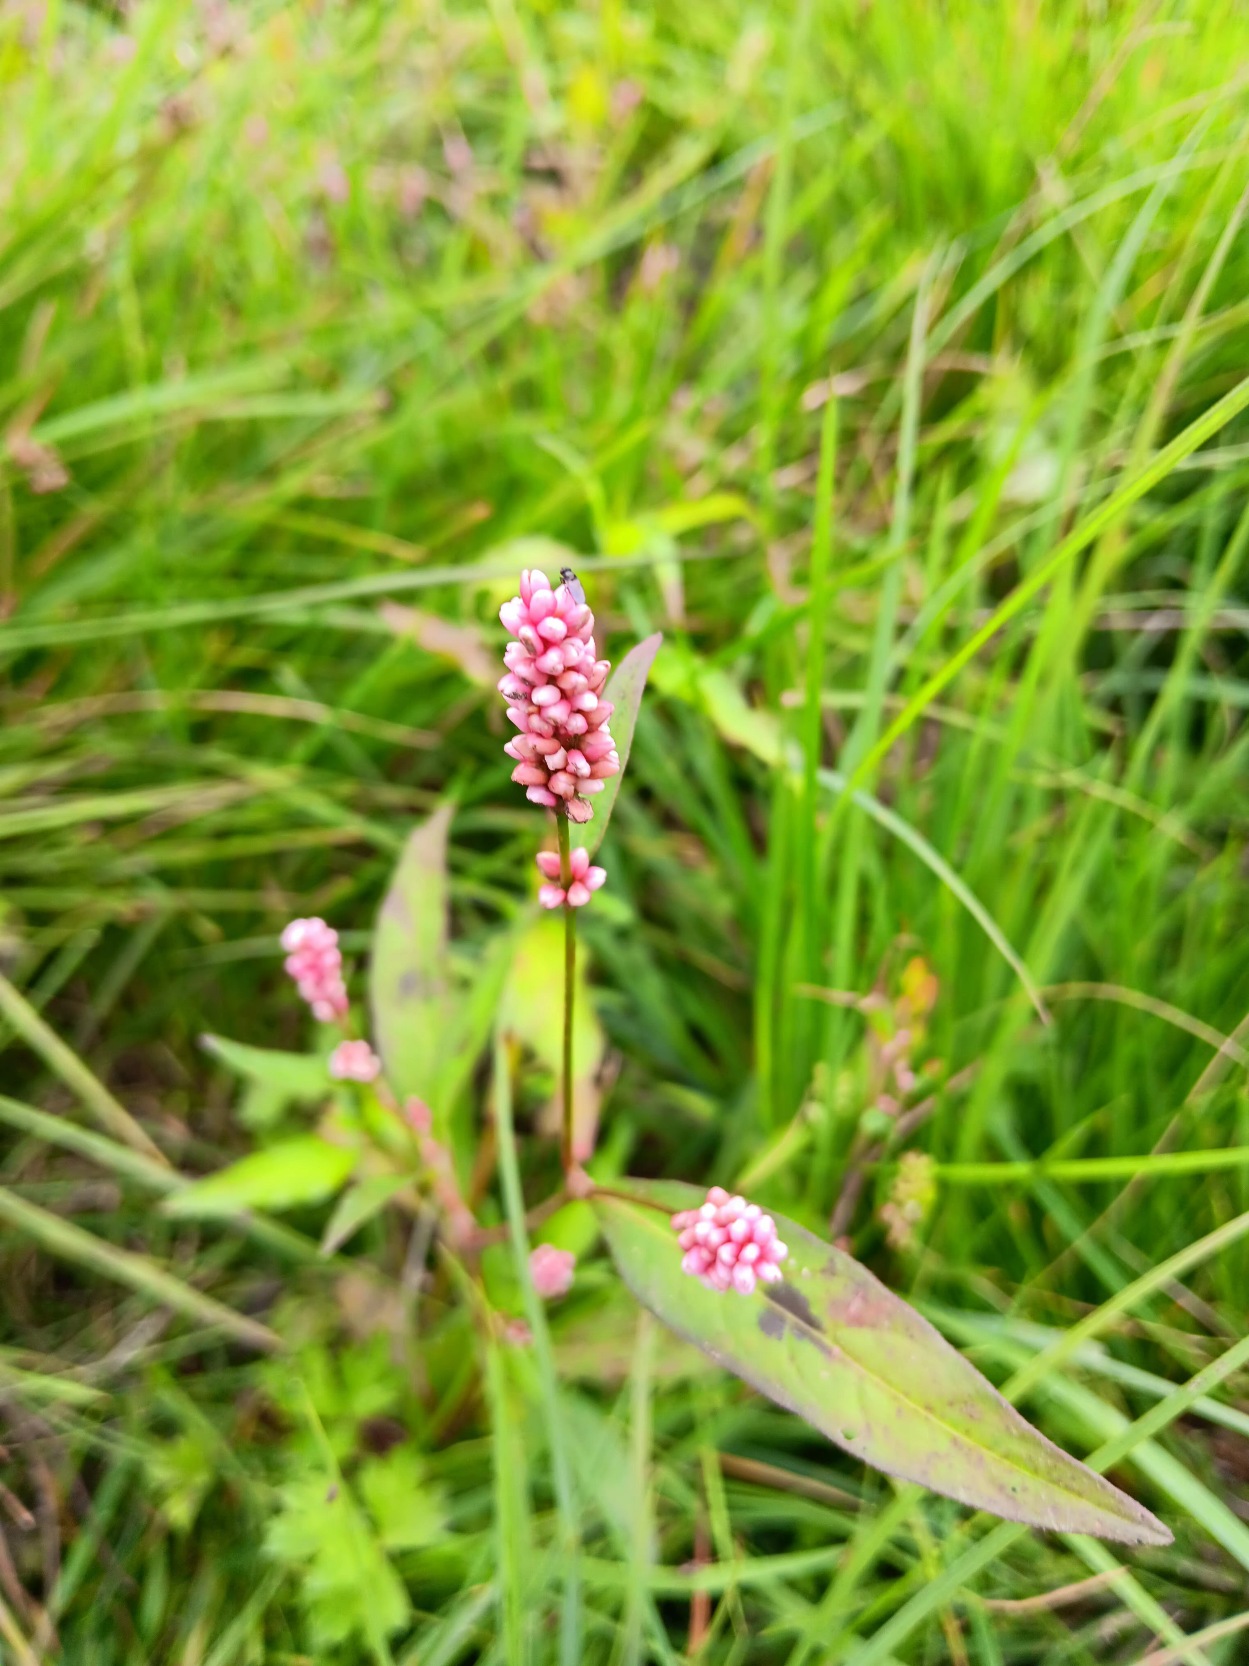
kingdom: Plantae
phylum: Tracheophyta
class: Magnoliopsida
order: Caryophyllales
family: Polygonaceae
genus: Persicaria
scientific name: Persicaria maculosa
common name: Fersken-pileurt
